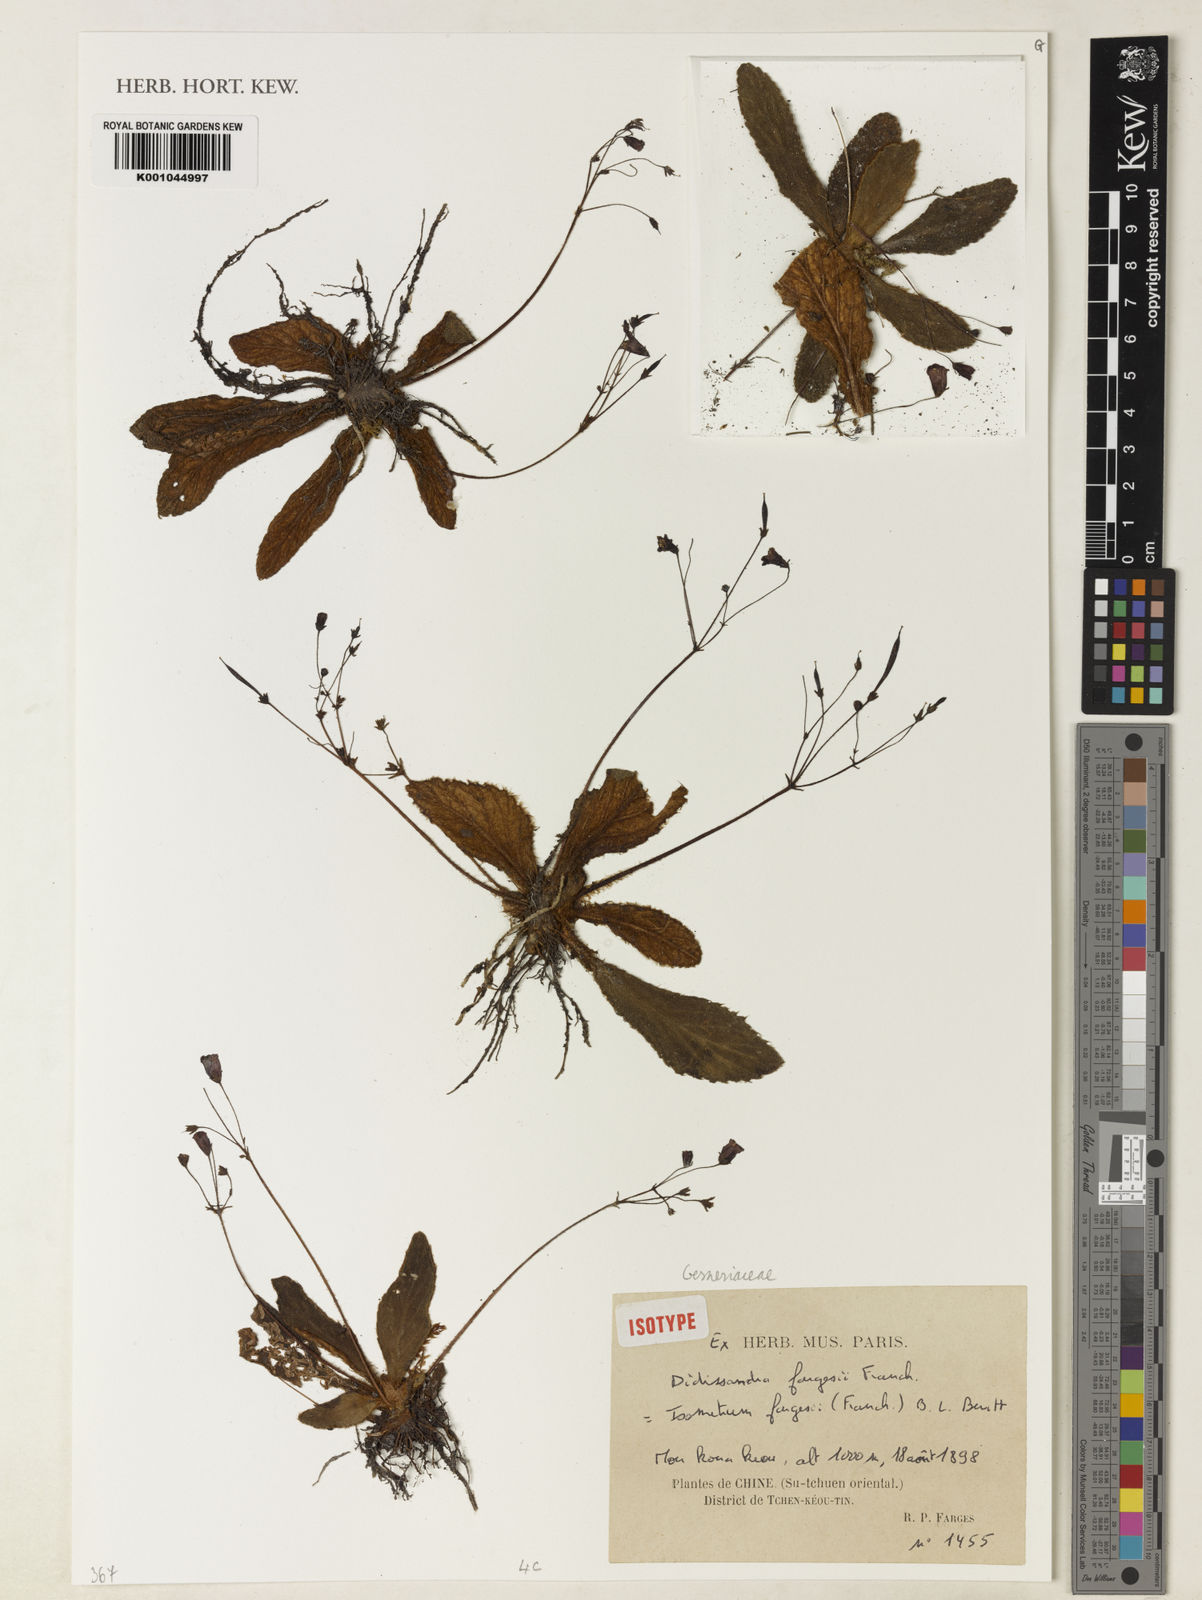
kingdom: Plantae
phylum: Tracheophyta
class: Magnoliopsida
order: Lamiales
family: Gesneriaceae
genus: Oreocharis
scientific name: Oreocharis fargesii
